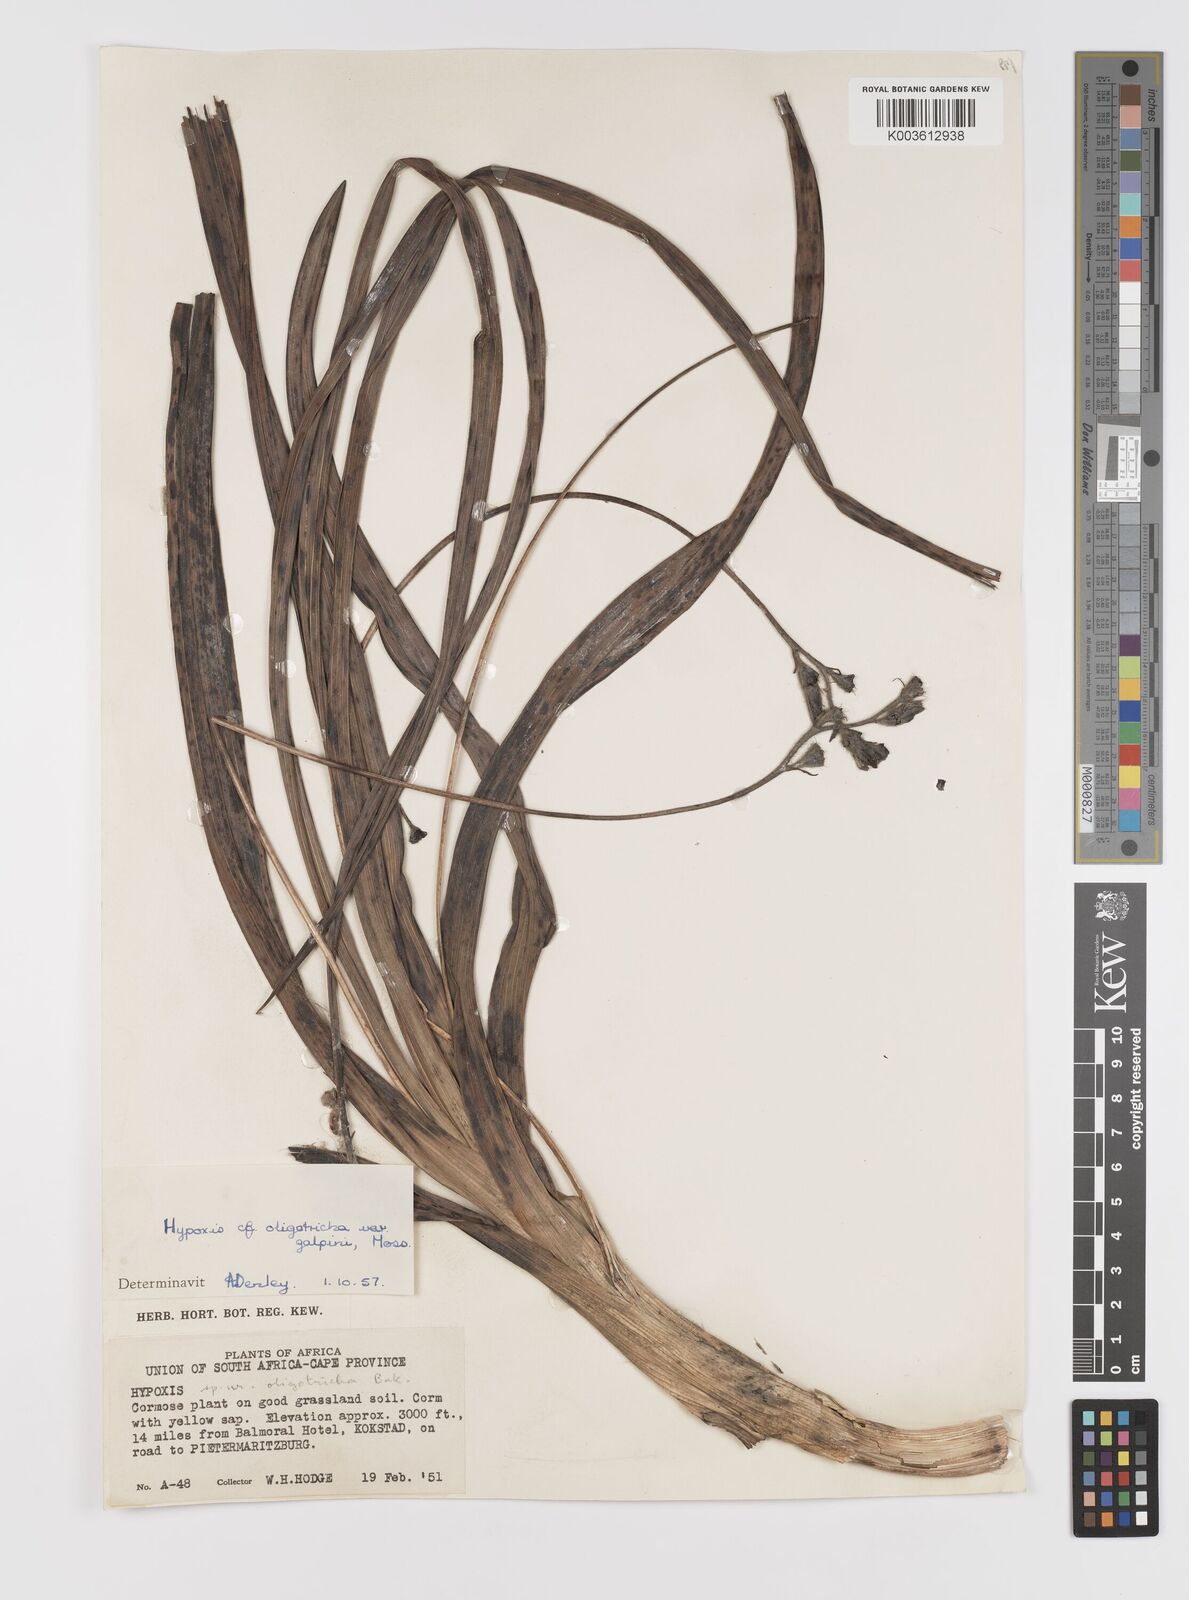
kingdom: Plantae
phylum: Tracheophyta
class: Liliopsida
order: Asparagales
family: Hypoxidaceae
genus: Hypoxis
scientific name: Hypoxis galpinii
